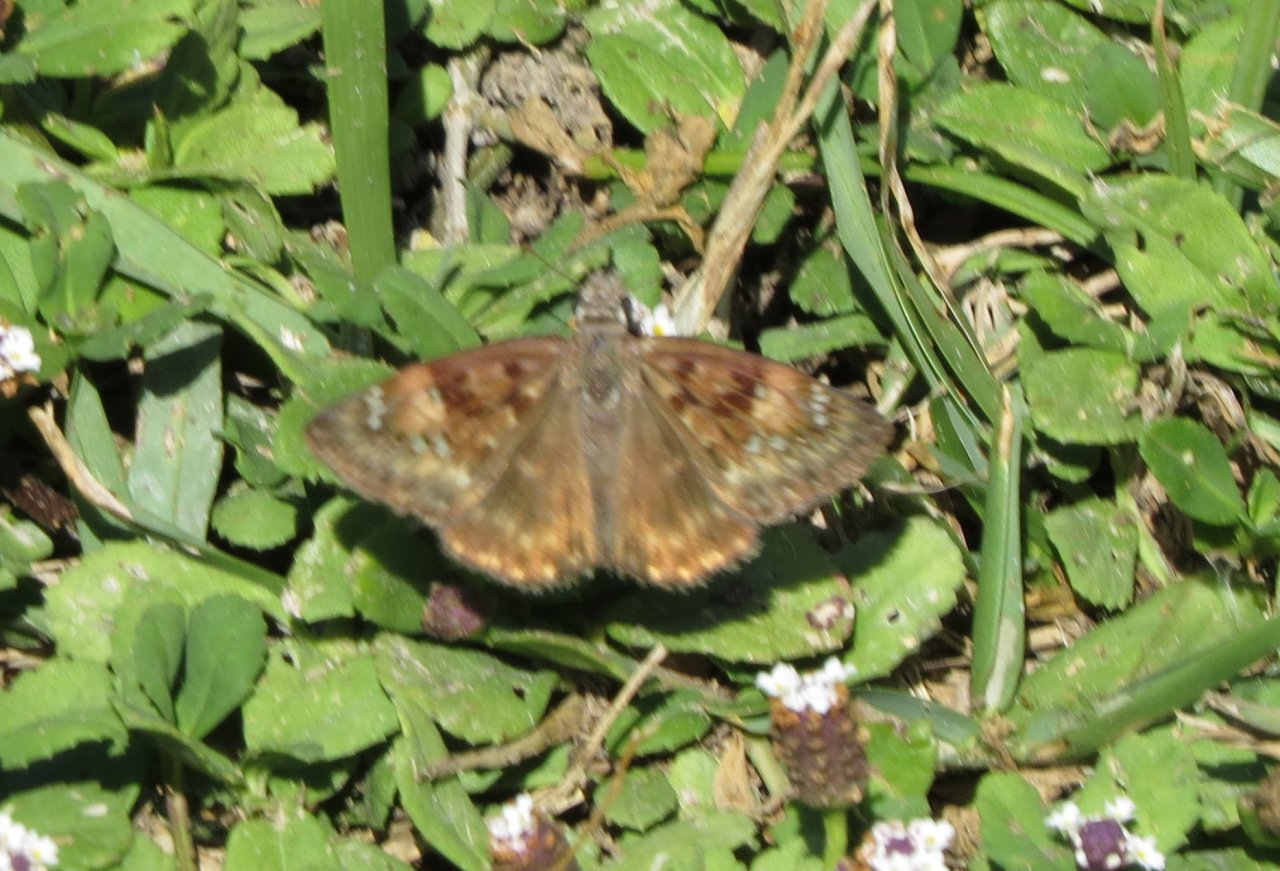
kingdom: Animalia
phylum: Arthropoda
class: Insecta
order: Lepidoptera
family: Hesperiidae
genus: Gesta
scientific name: Gesta
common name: Horace's Duskywing
